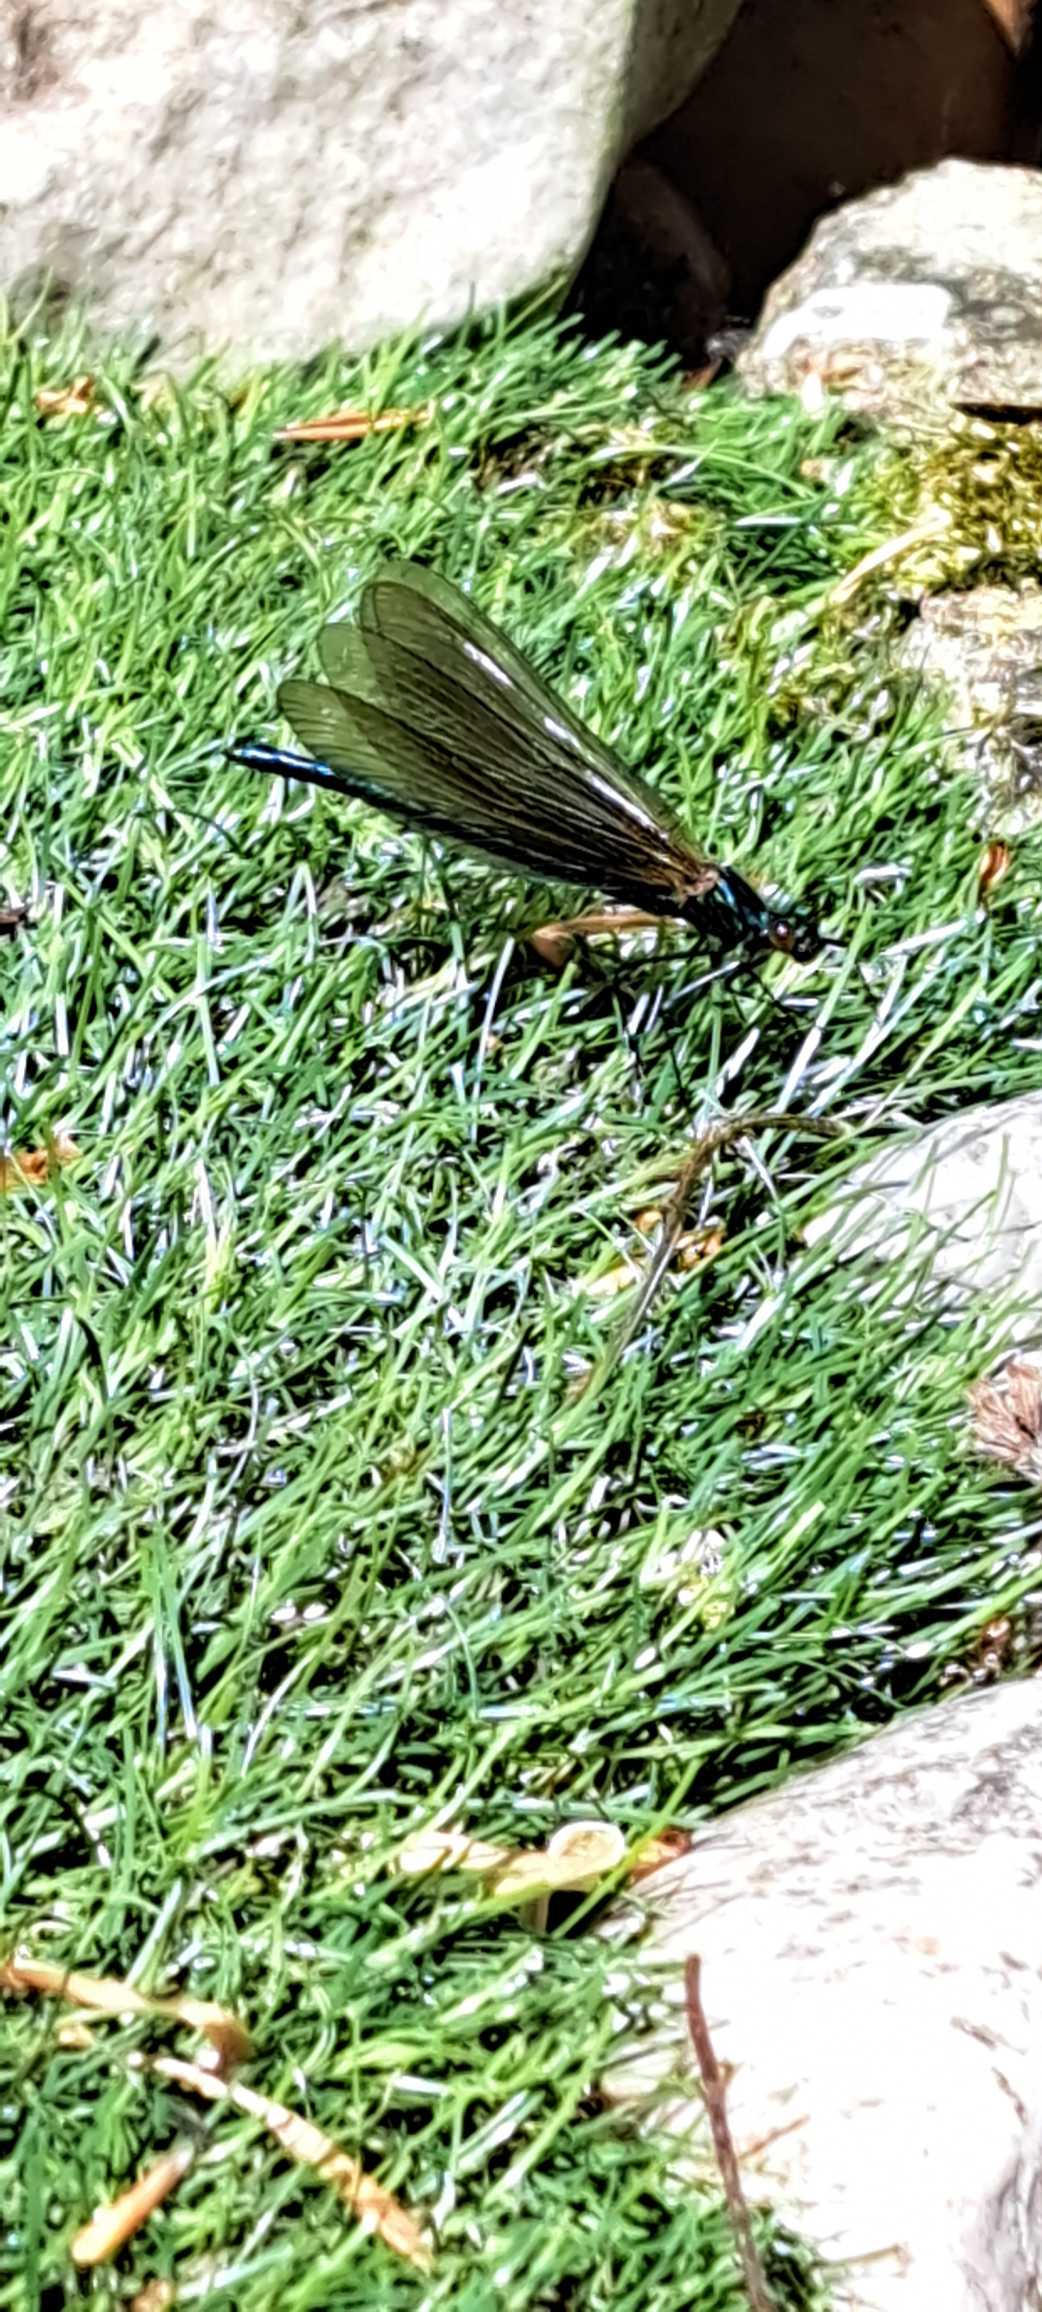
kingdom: Animalia
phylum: Arthropoda
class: Insecta
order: Odonata
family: Calopterygidae
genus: Calopteryx
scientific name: Calopteryx virgo
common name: Blåvinget pragtvandnymfe
